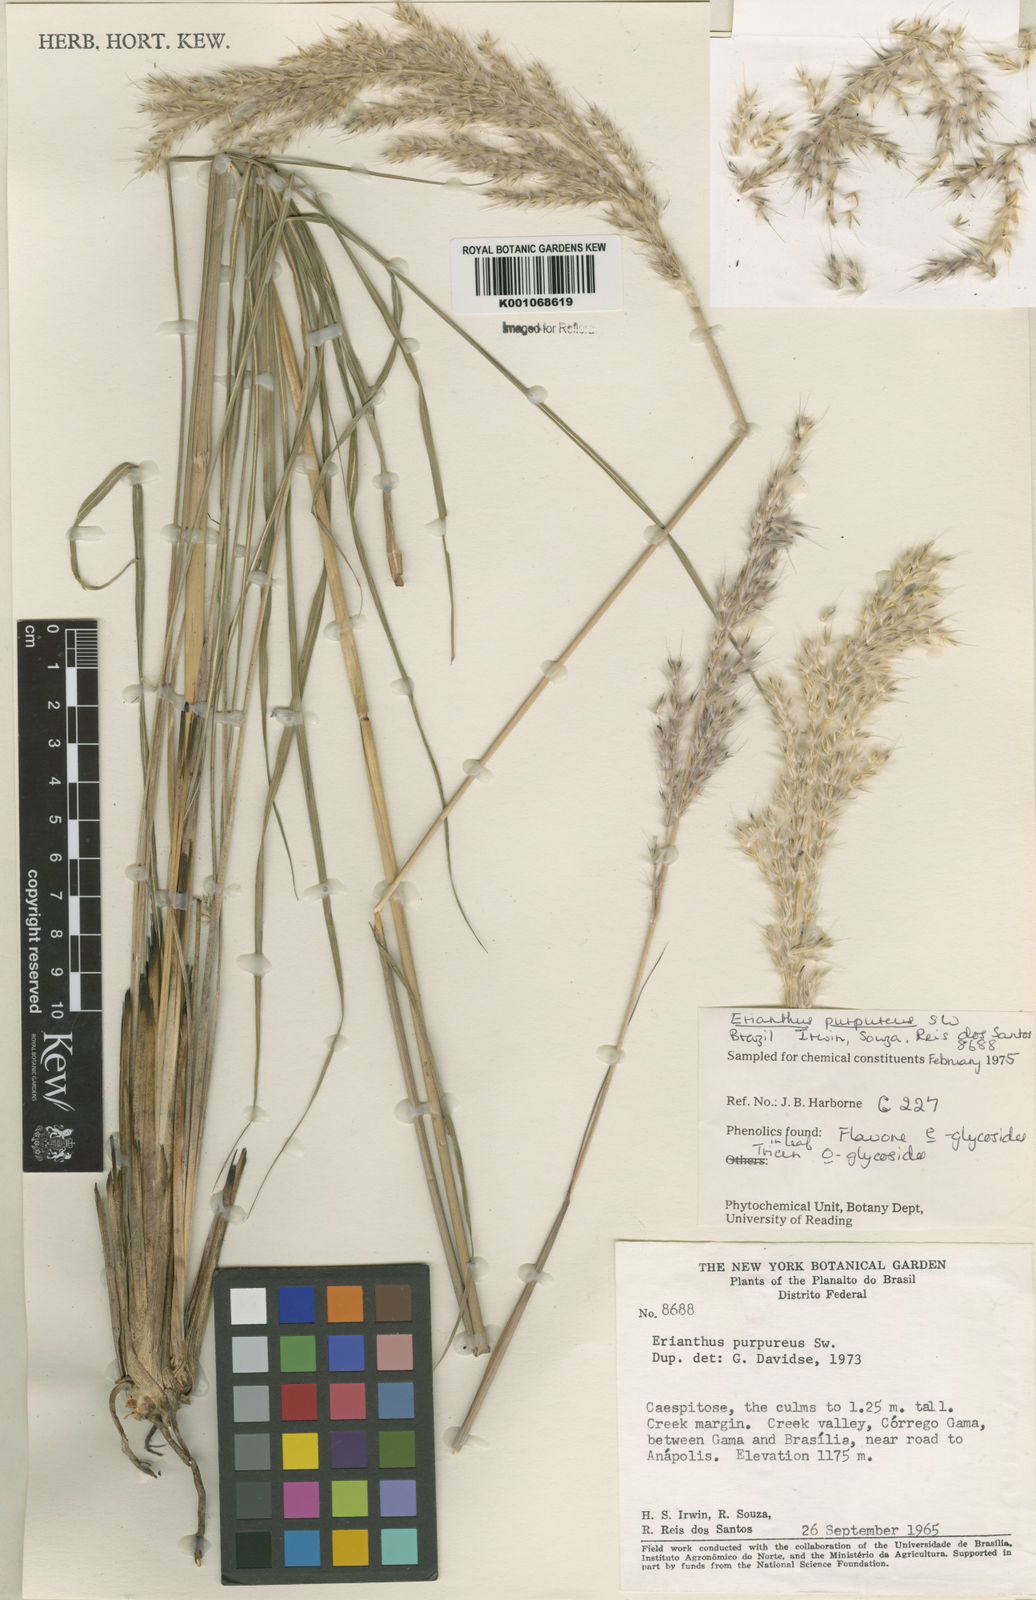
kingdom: Plantae
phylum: Tracheophyta
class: Liliopsida
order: Poales
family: Poaceae
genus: Saccharum
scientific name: Saccharum angustifolium
